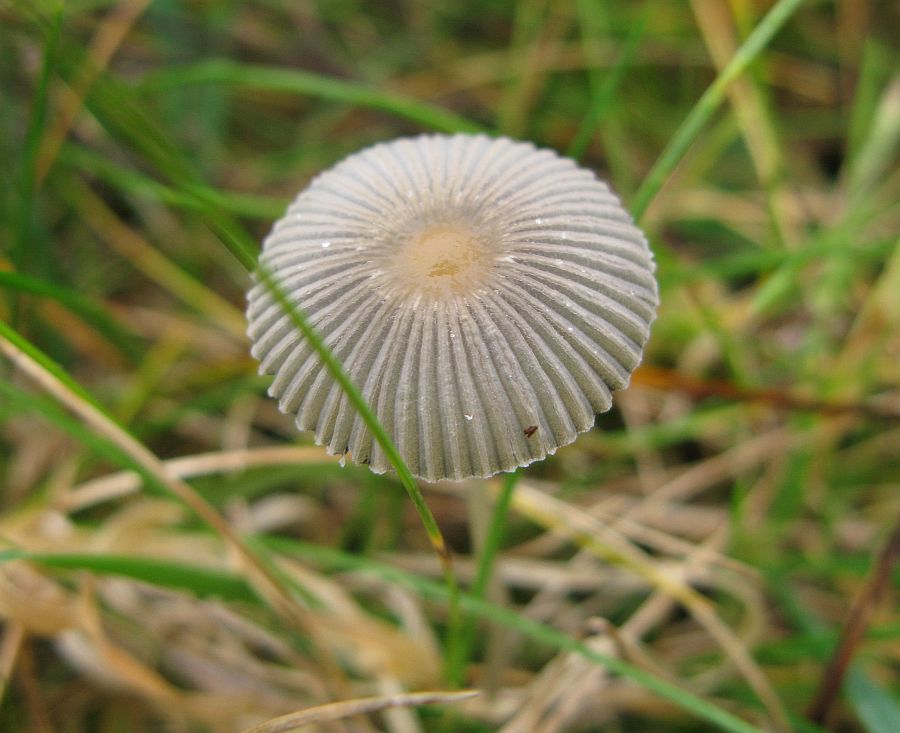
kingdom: Fungi
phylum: Basidiomycota
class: Agaricomycetes
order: Agaricales
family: Psathyrellaceae
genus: Parasola
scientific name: Parasola plicatilis
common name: plæne-hjulhat
